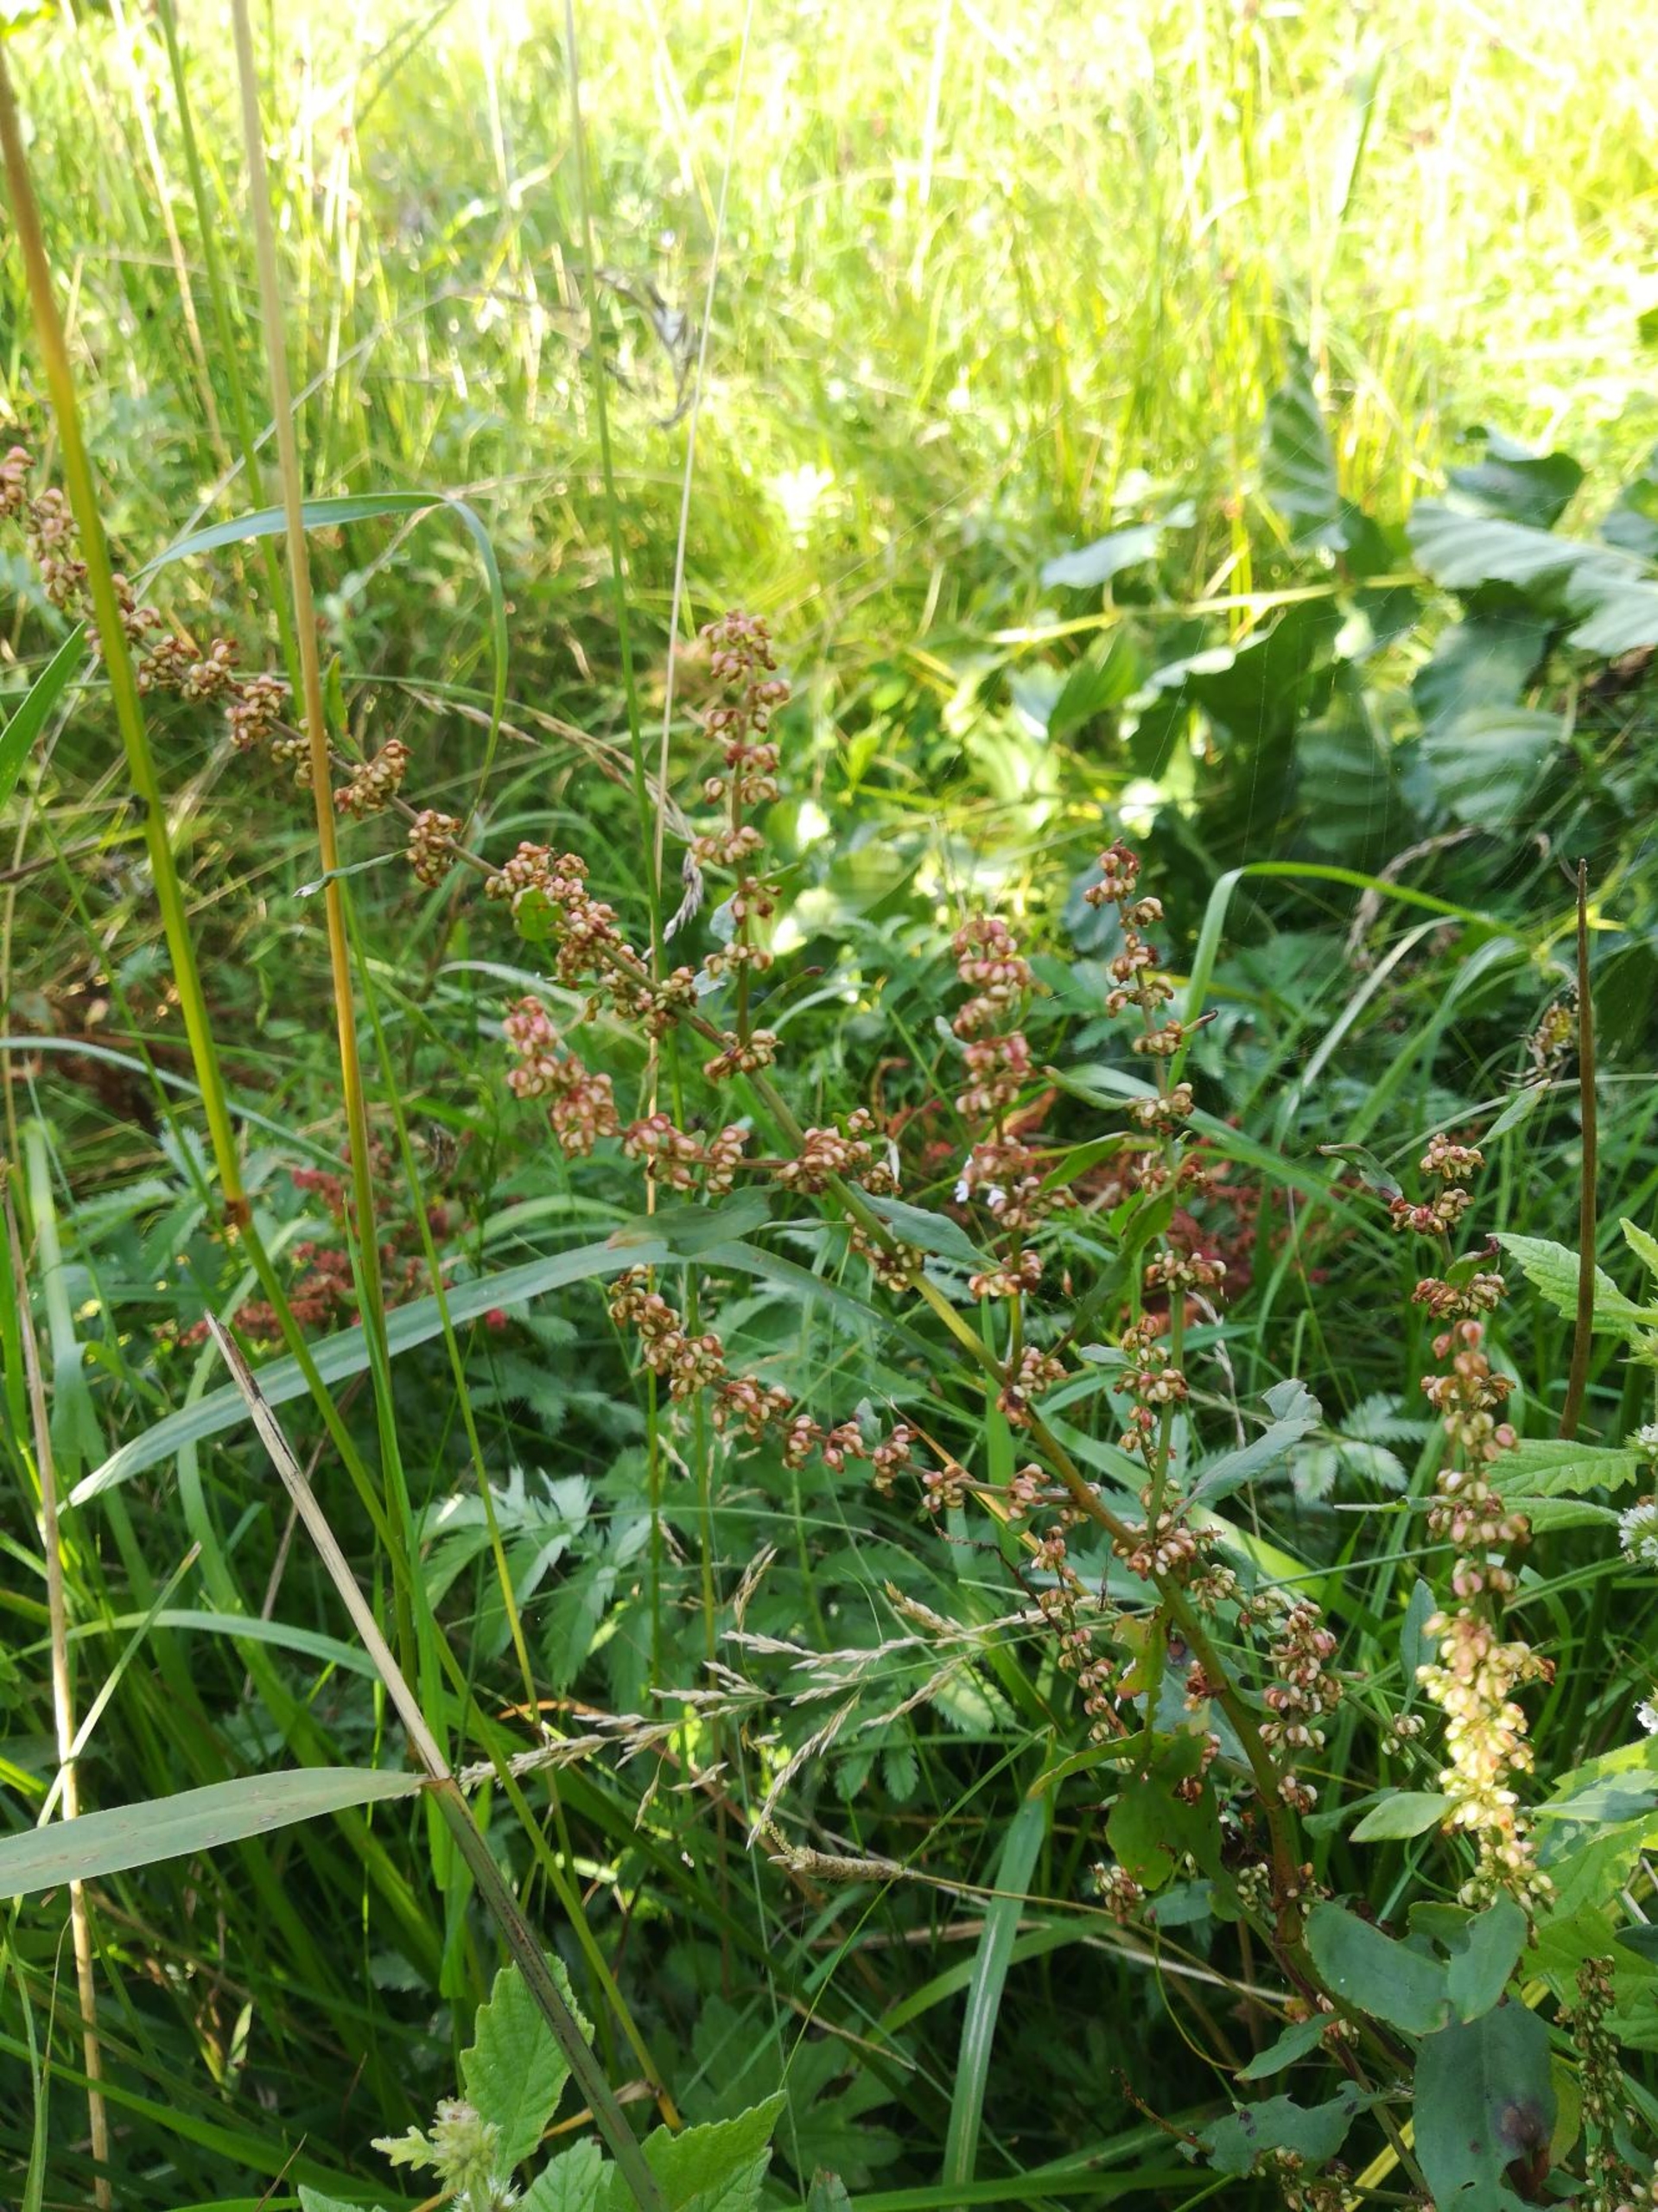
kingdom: Plantae
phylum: Tracheophyta
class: Magnoliopsida
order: Caryophyllales
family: Polygonaceae
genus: Rumex
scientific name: Rumex conglomeratus
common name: Nøgle-skræppe
